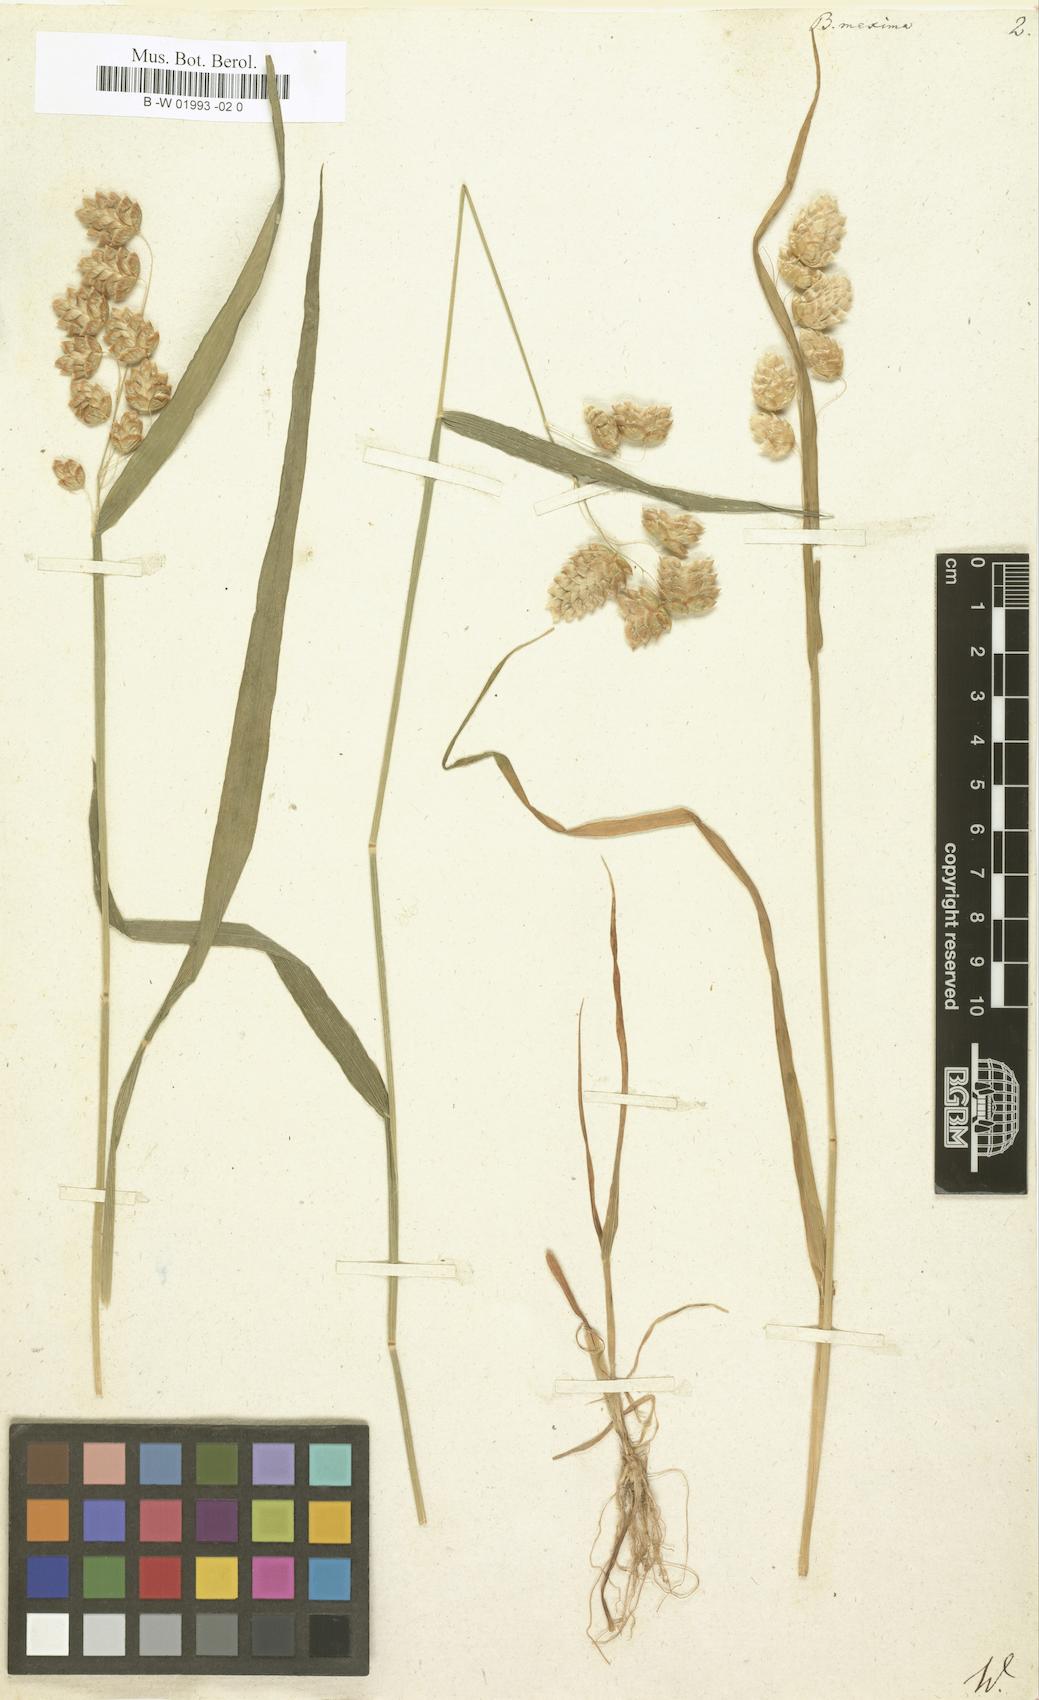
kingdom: Plantae
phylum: Tracheophyta
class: Liliopsida
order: Poales
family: Poaceae
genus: Briza
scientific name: Briza maxima
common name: Big quakinggrass
